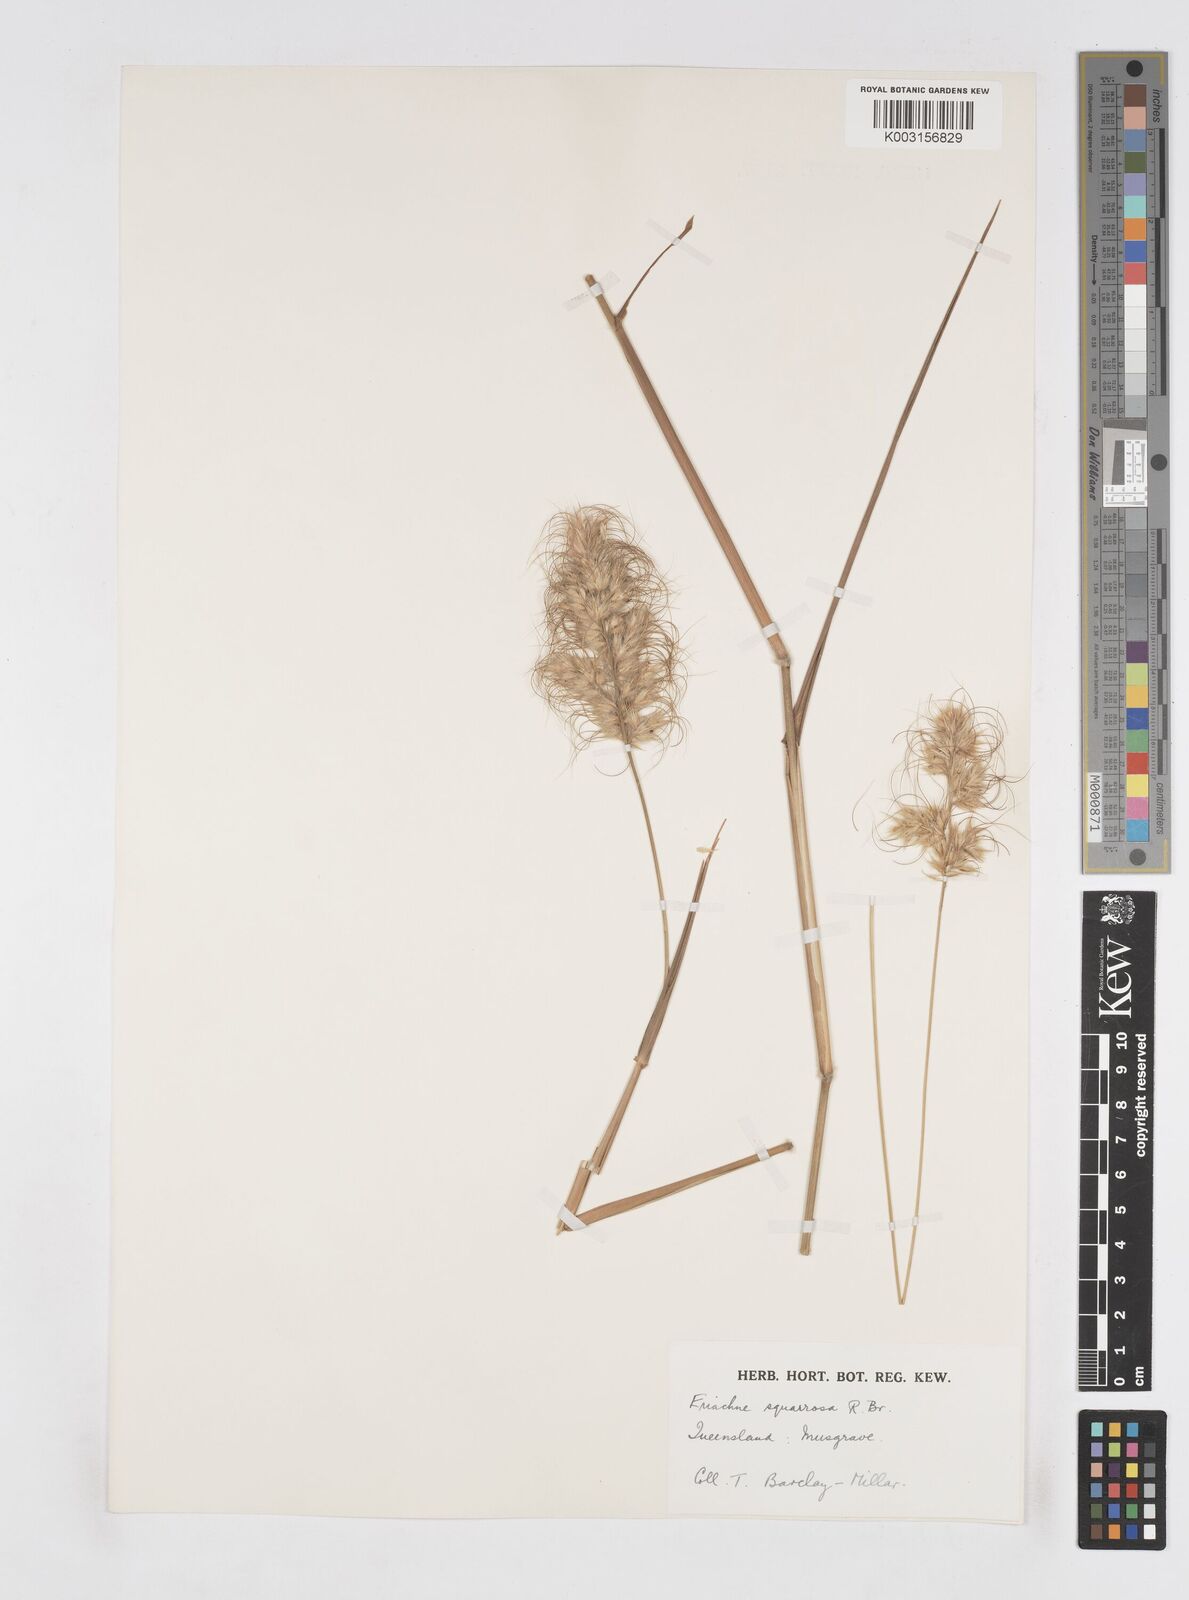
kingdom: Plantae
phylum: Tracheophyta
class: Liliopsida
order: Poales
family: Poaceae
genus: Eriachne
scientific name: Eriachne squarrosa
